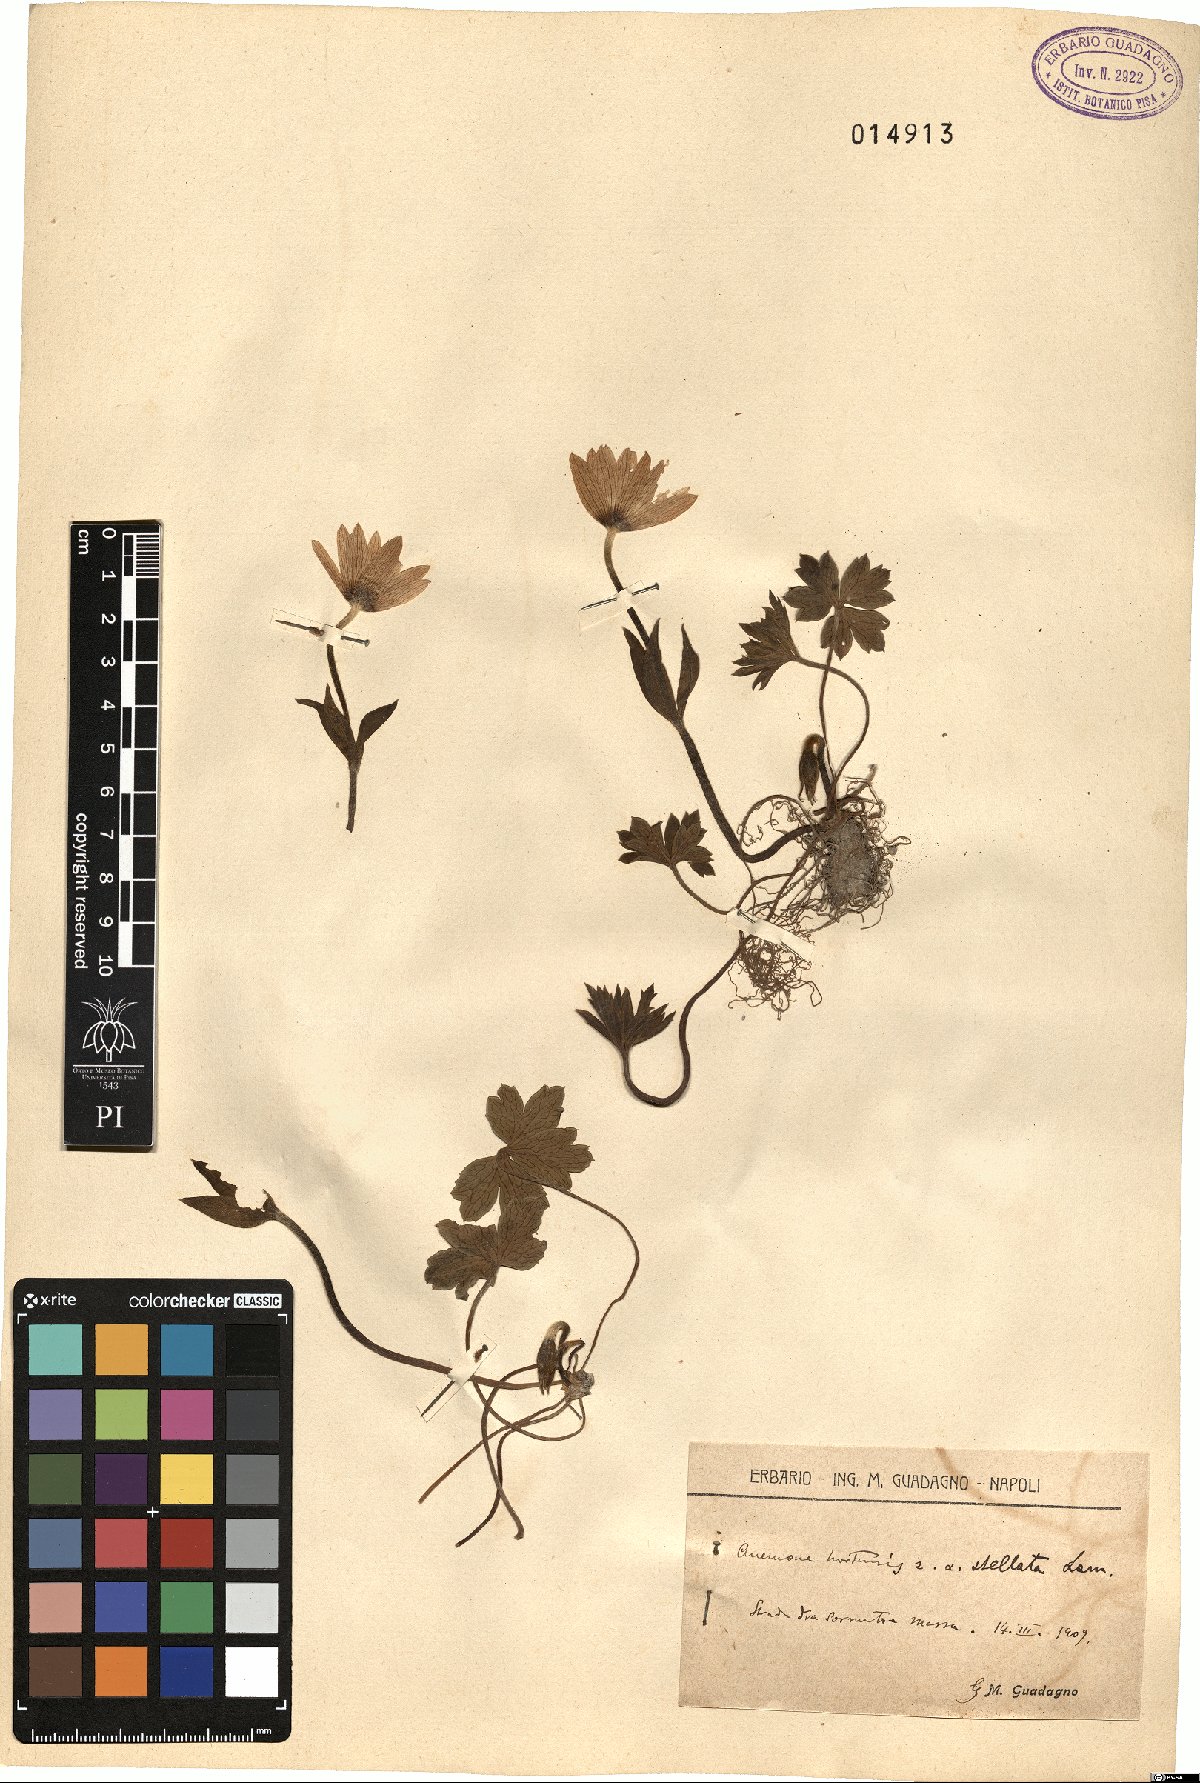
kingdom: Plantae
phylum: Tracheophyta
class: Magnoliopsida
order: Ranunculales
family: Ranunculaceae
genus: Anemone
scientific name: Anemone hortensis
